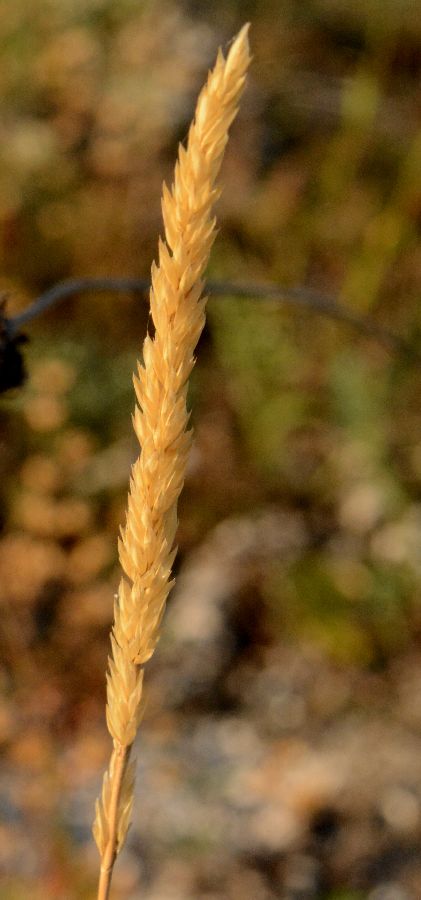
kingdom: Plantae
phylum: Tracheophyta
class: Liliopsida
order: Poales
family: Poaceae
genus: Koeleria
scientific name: Koeleria macrantha
